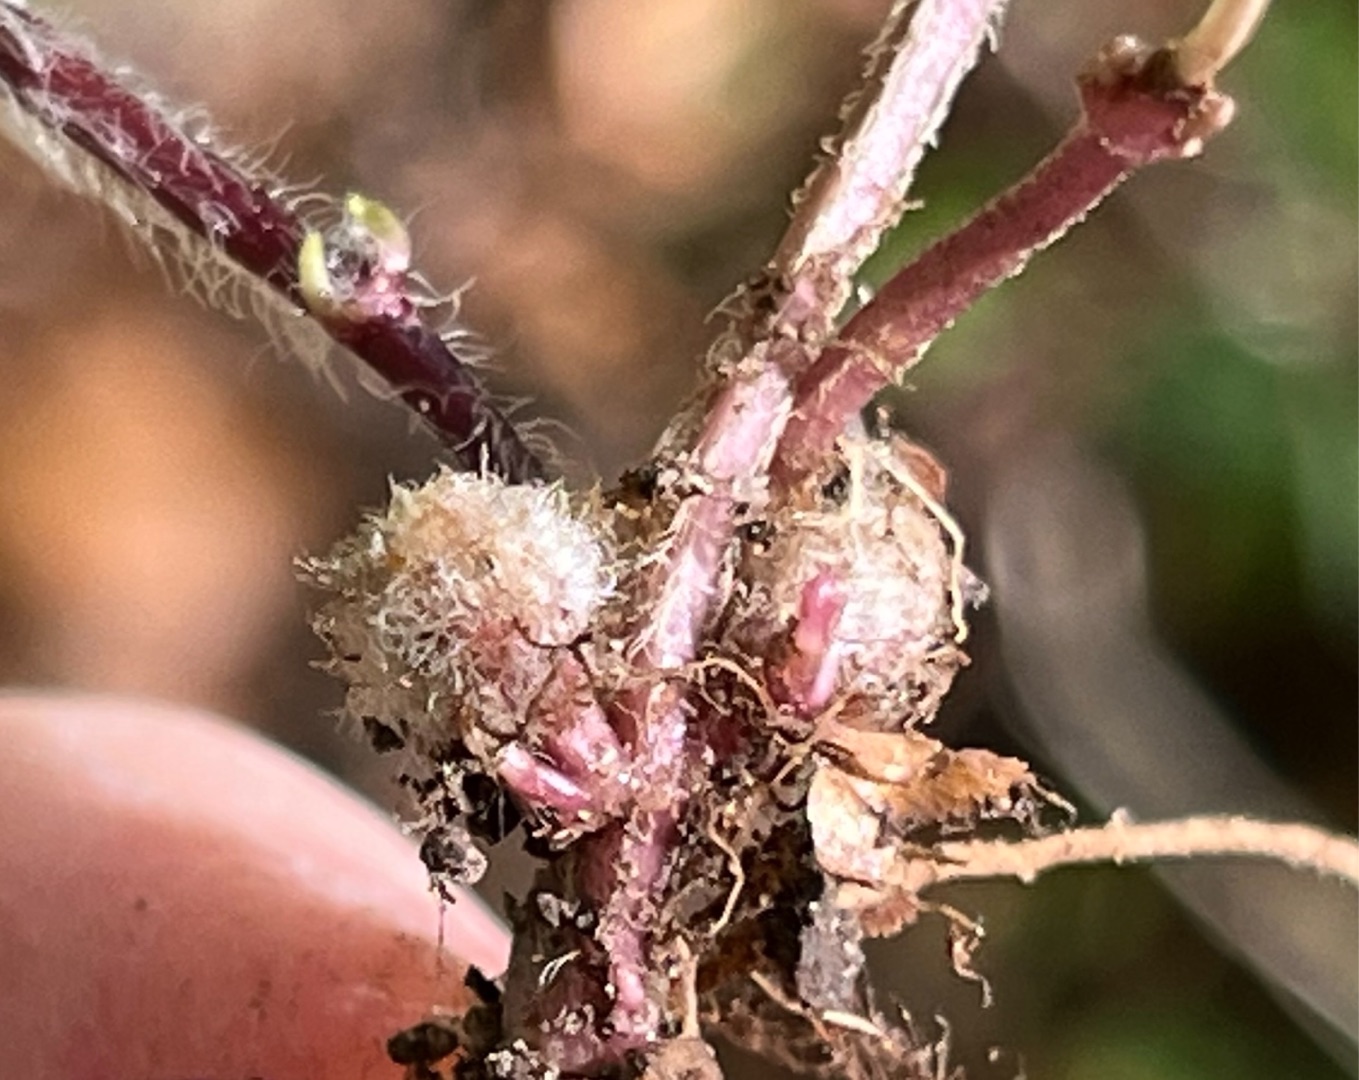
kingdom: Animalia
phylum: Arthropoda
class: Insecta
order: Diptera
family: Cecidomyiidae
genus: Dasineura
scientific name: Dasineura strumosa
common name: Guldnældegalmyg
